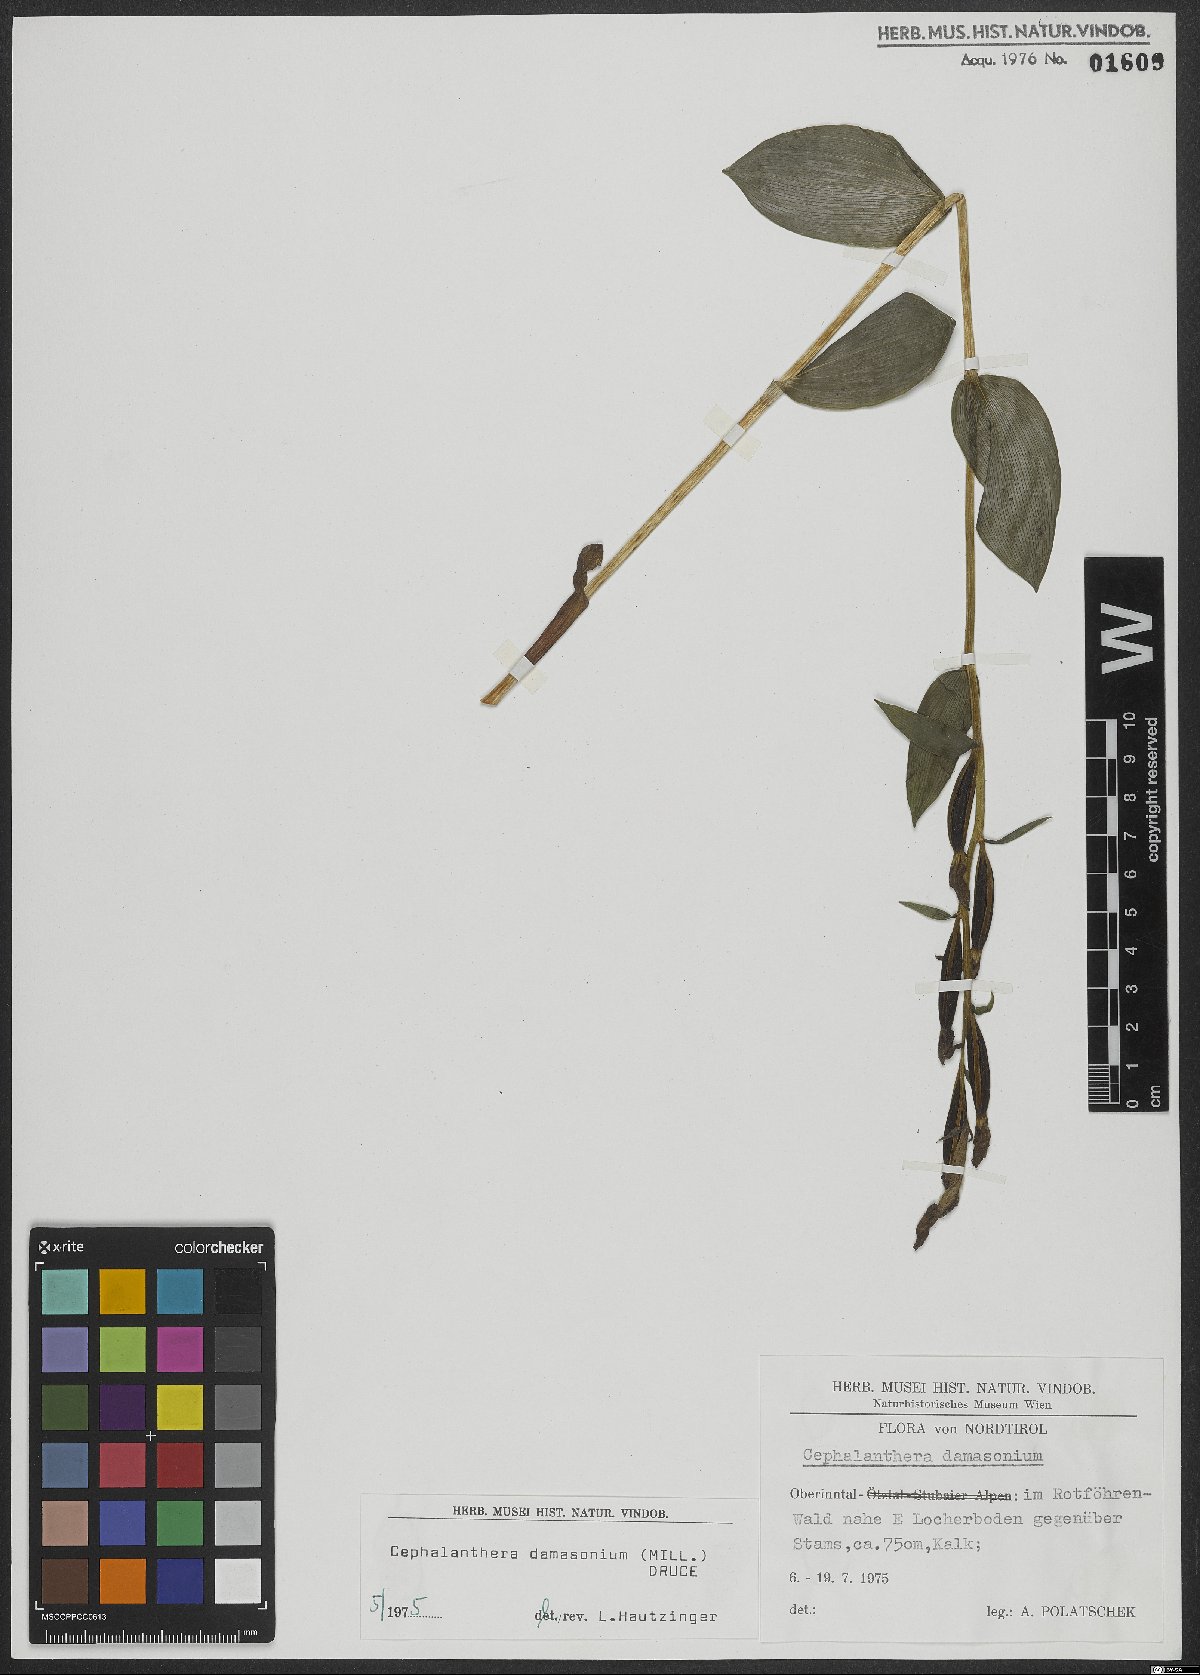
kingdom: Plantae
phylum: Tracheophyta
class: Liliopsida
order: Asparagales
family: Orchidaceae
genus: Cephalanthera
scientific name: Cephalanthera damasonium
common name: White helleborine
